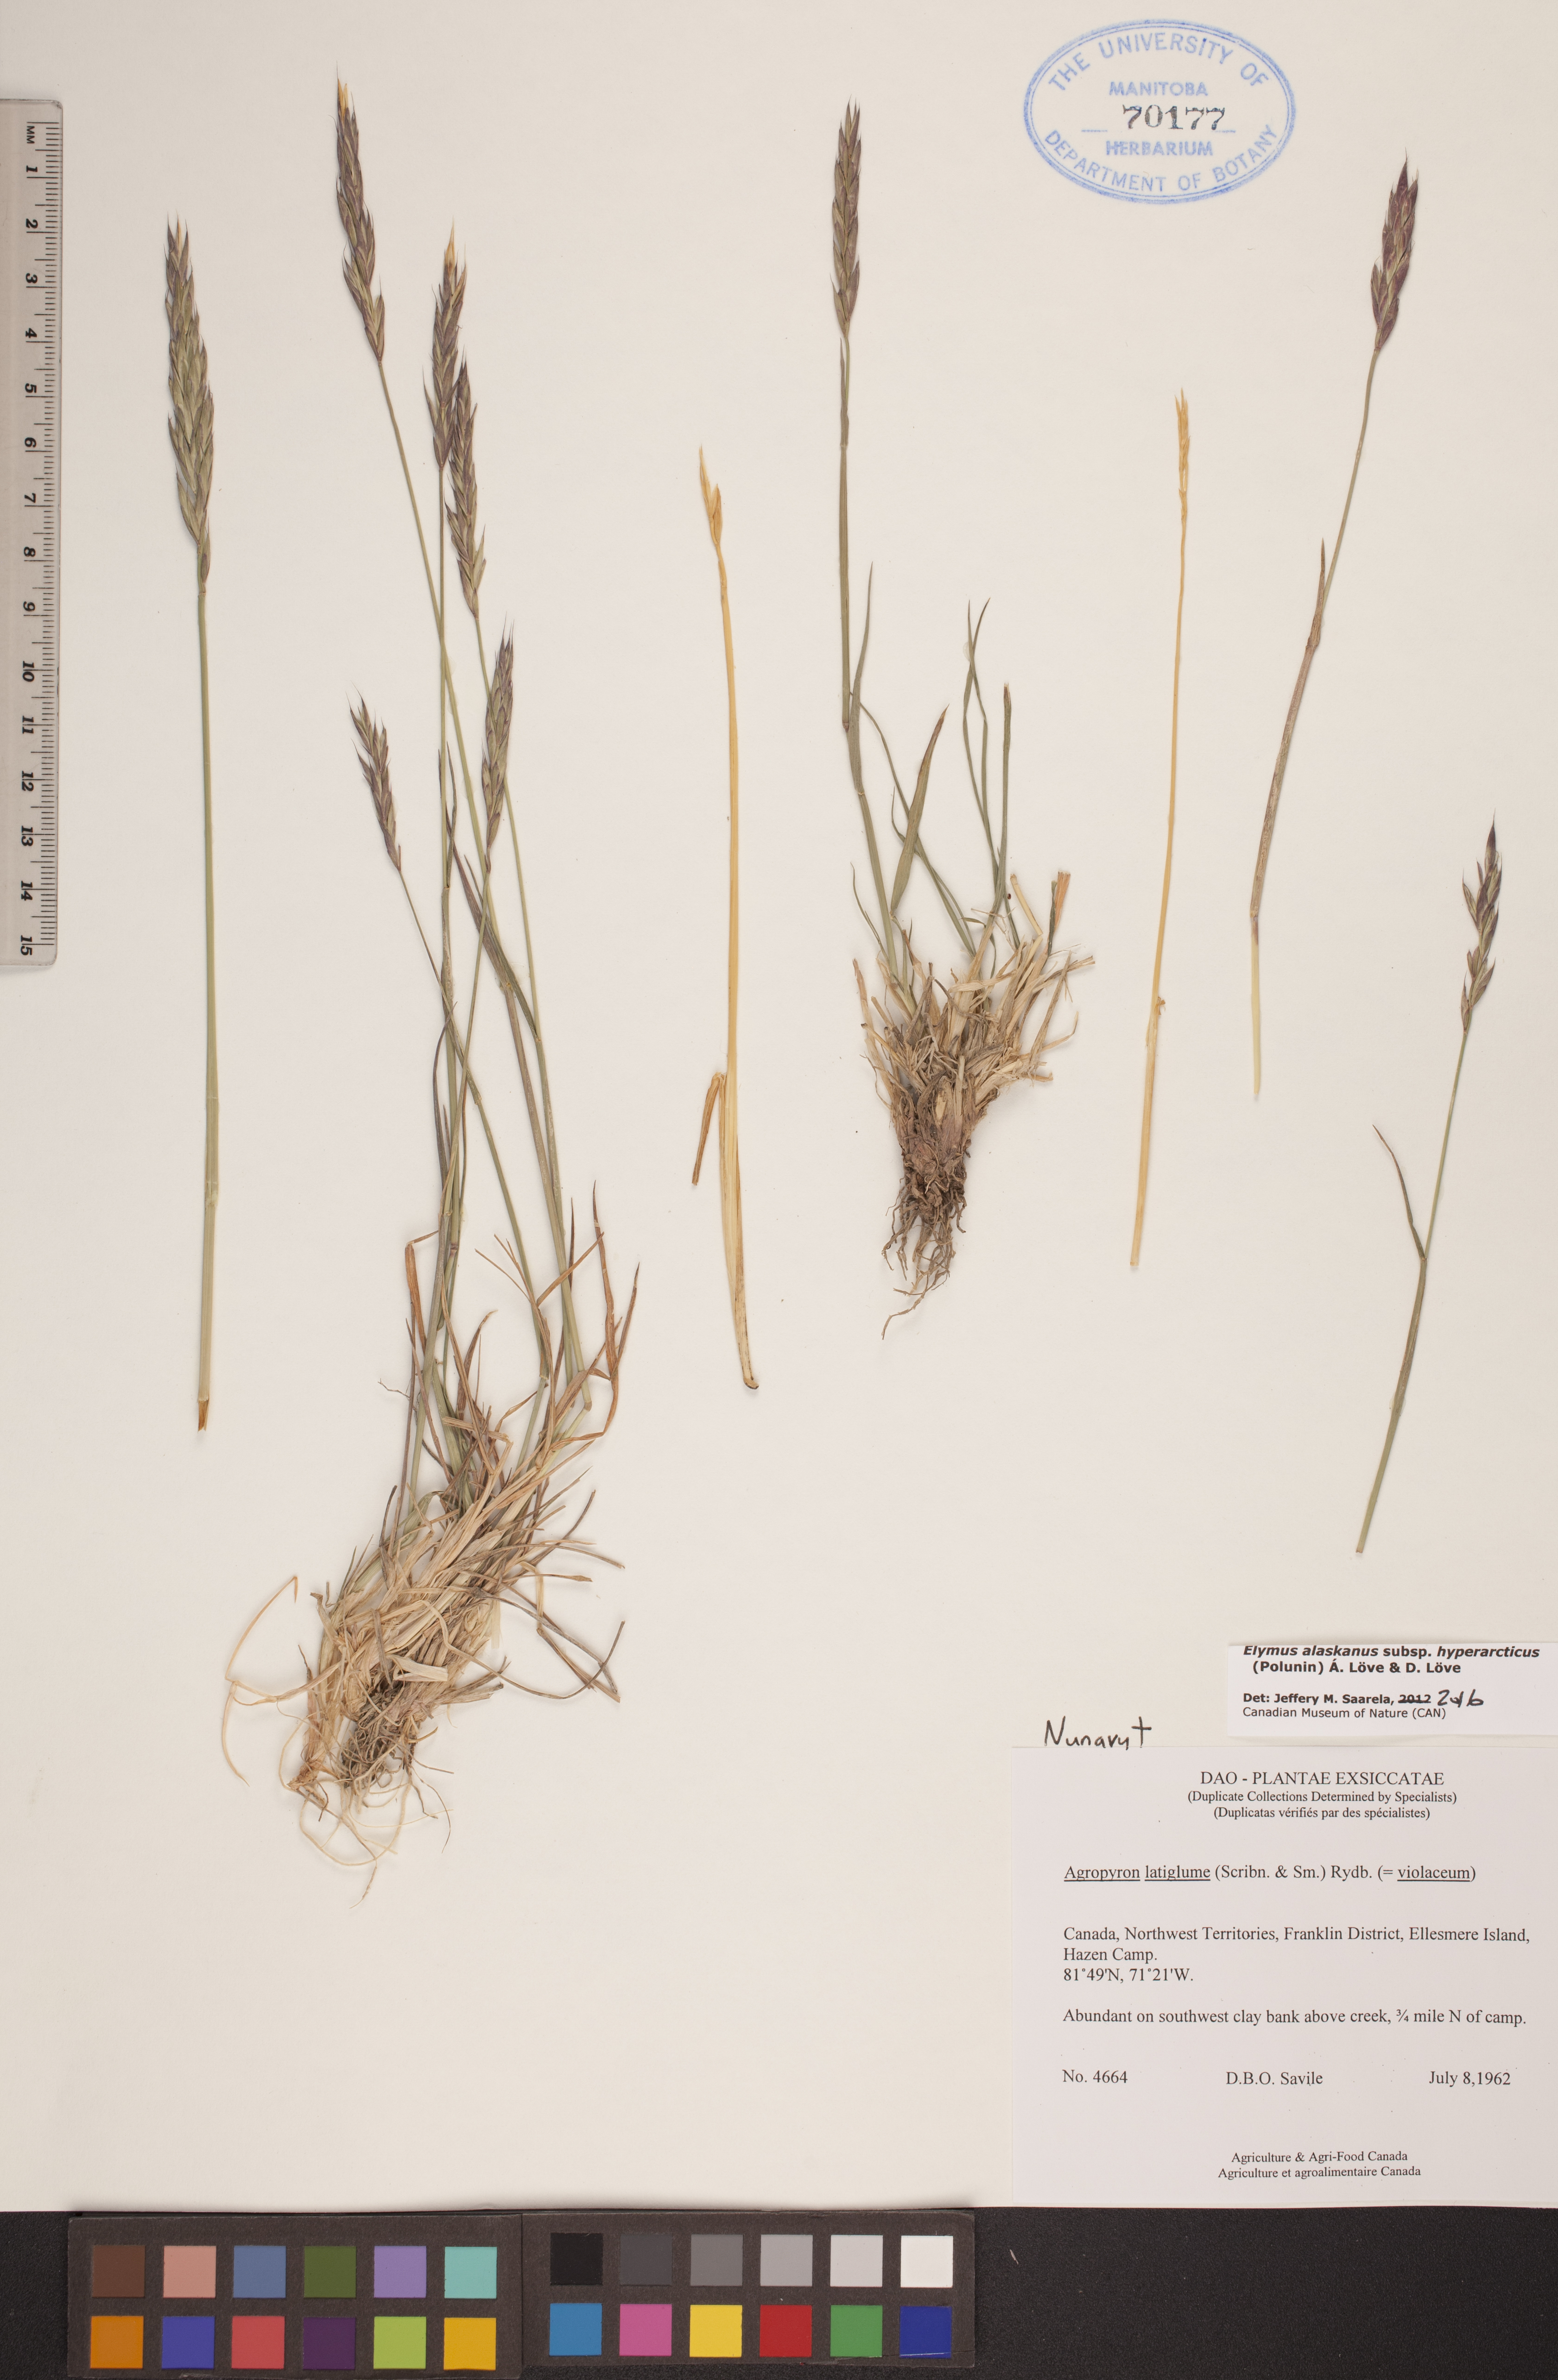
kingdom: Plantae
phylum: Tracheophyta
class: Liliopsida
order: Poales
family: Poaceae
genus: Elymus
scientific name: Elymus sajanensis
